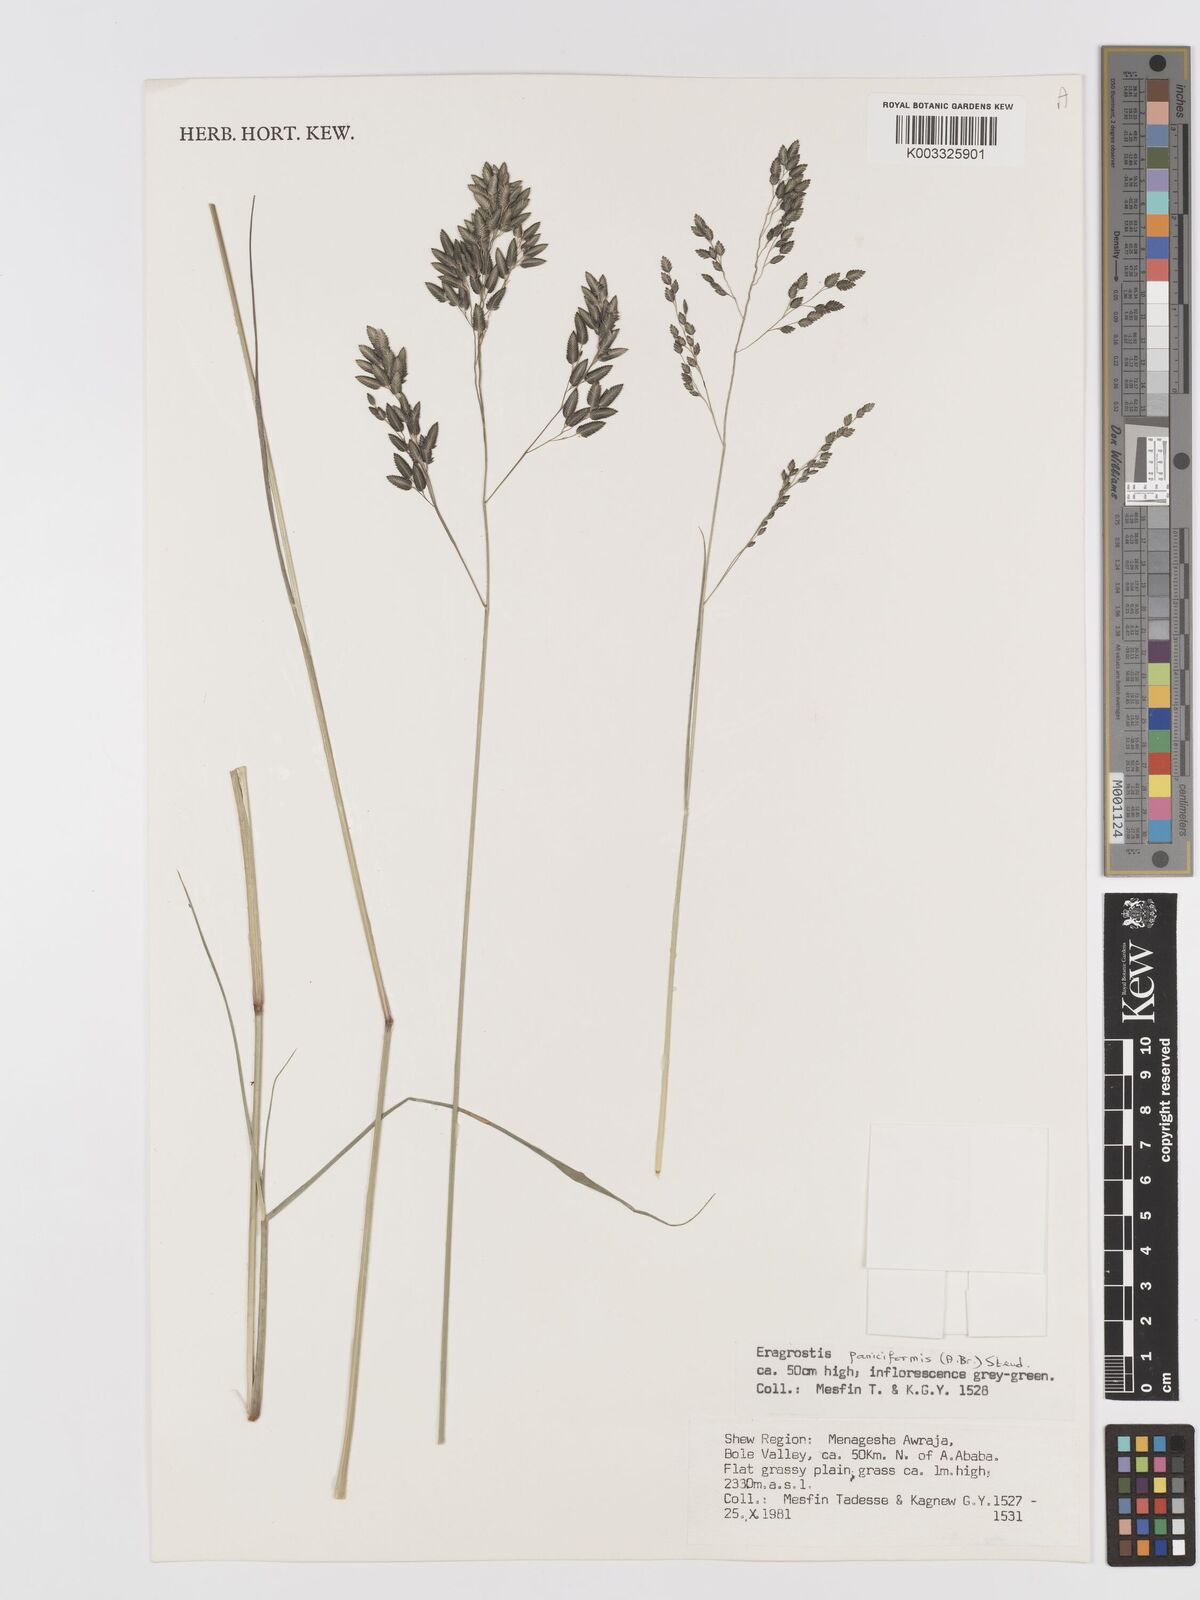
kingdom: Plantae
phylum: Tracheophyta
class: Liliopsida
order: Poales
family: Poaceae
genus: Eragrostis
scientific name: Eragrostis paniciformis
